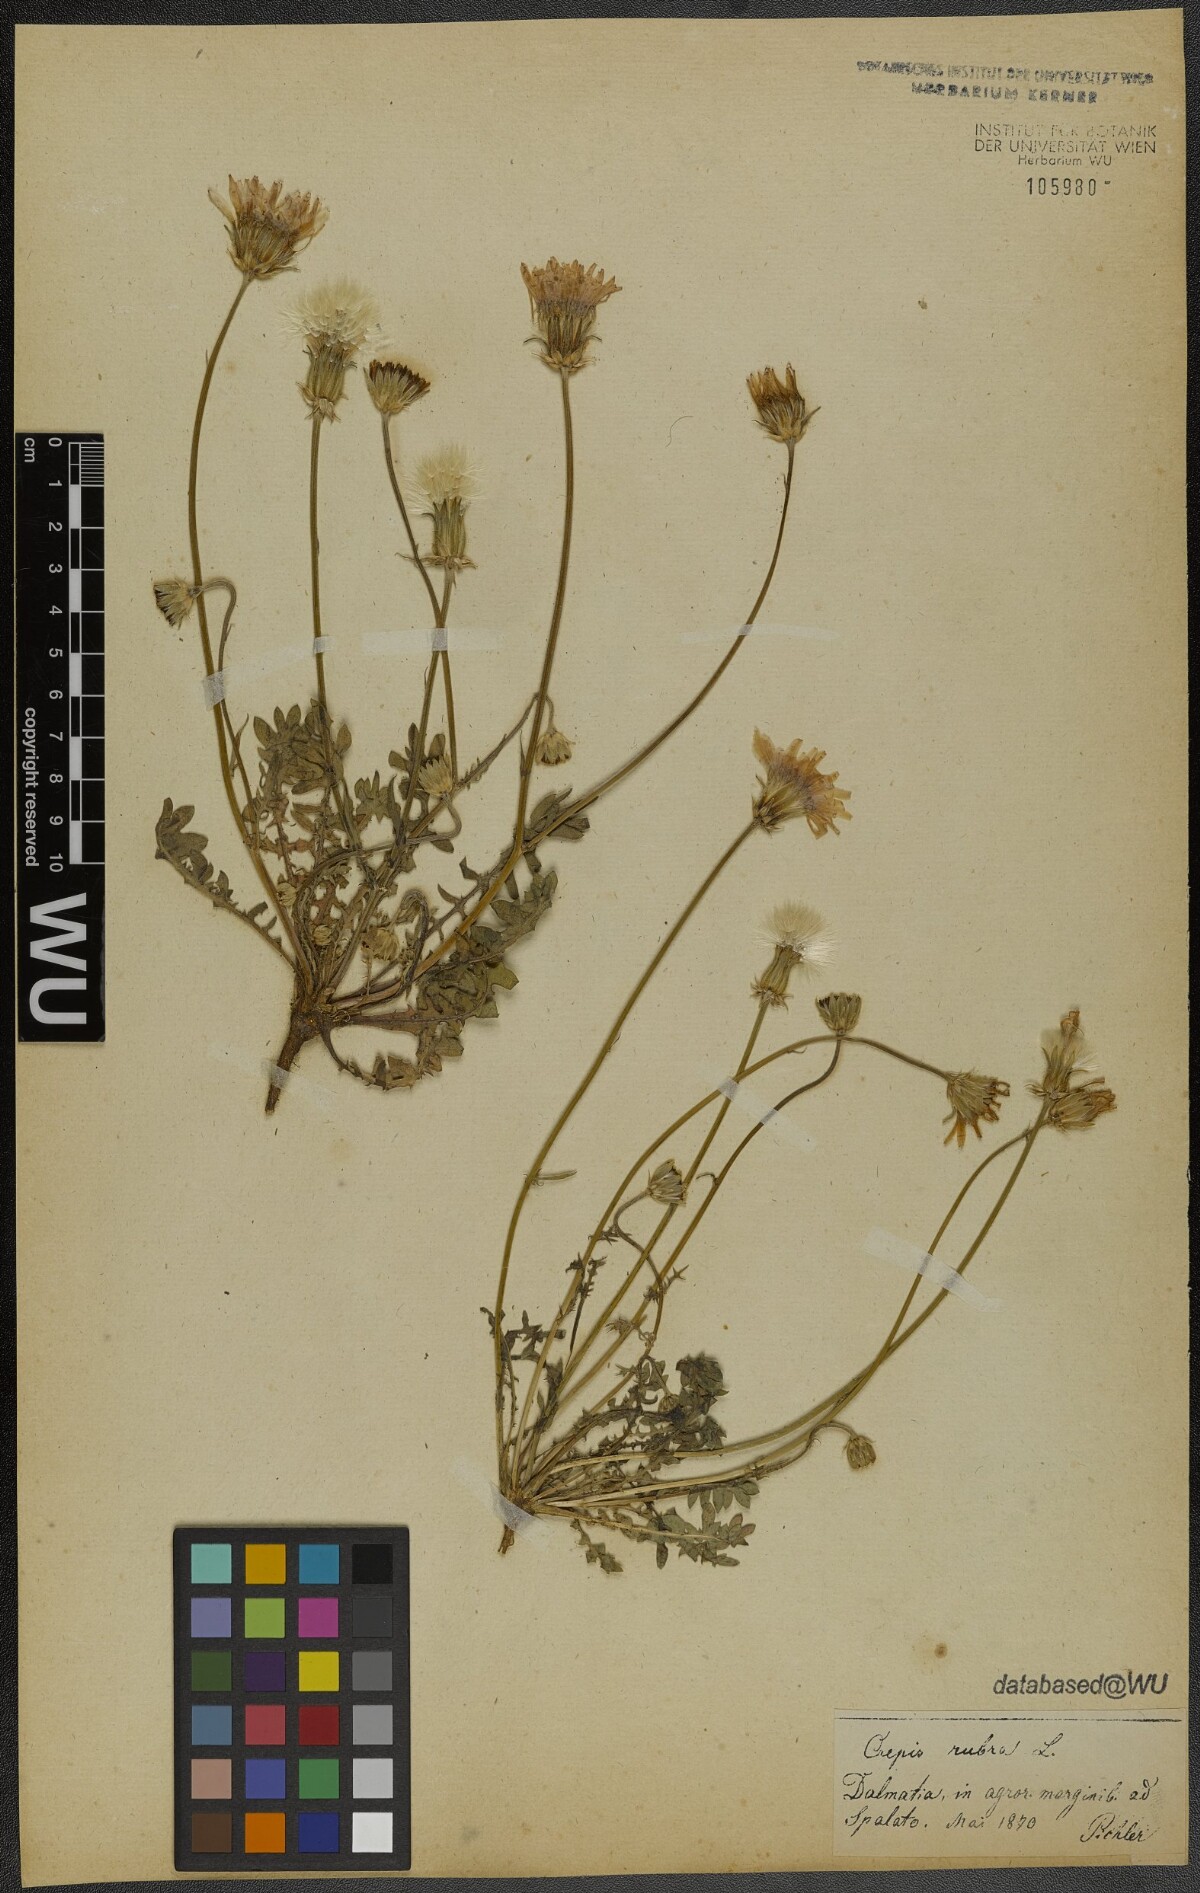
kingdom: Plantae
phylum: Tracheophyta
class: Magnoliopsida
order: Asterales
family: Asteraceae
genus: Crepis
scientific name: Crepis rubra
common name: Pink hawk's-beard
